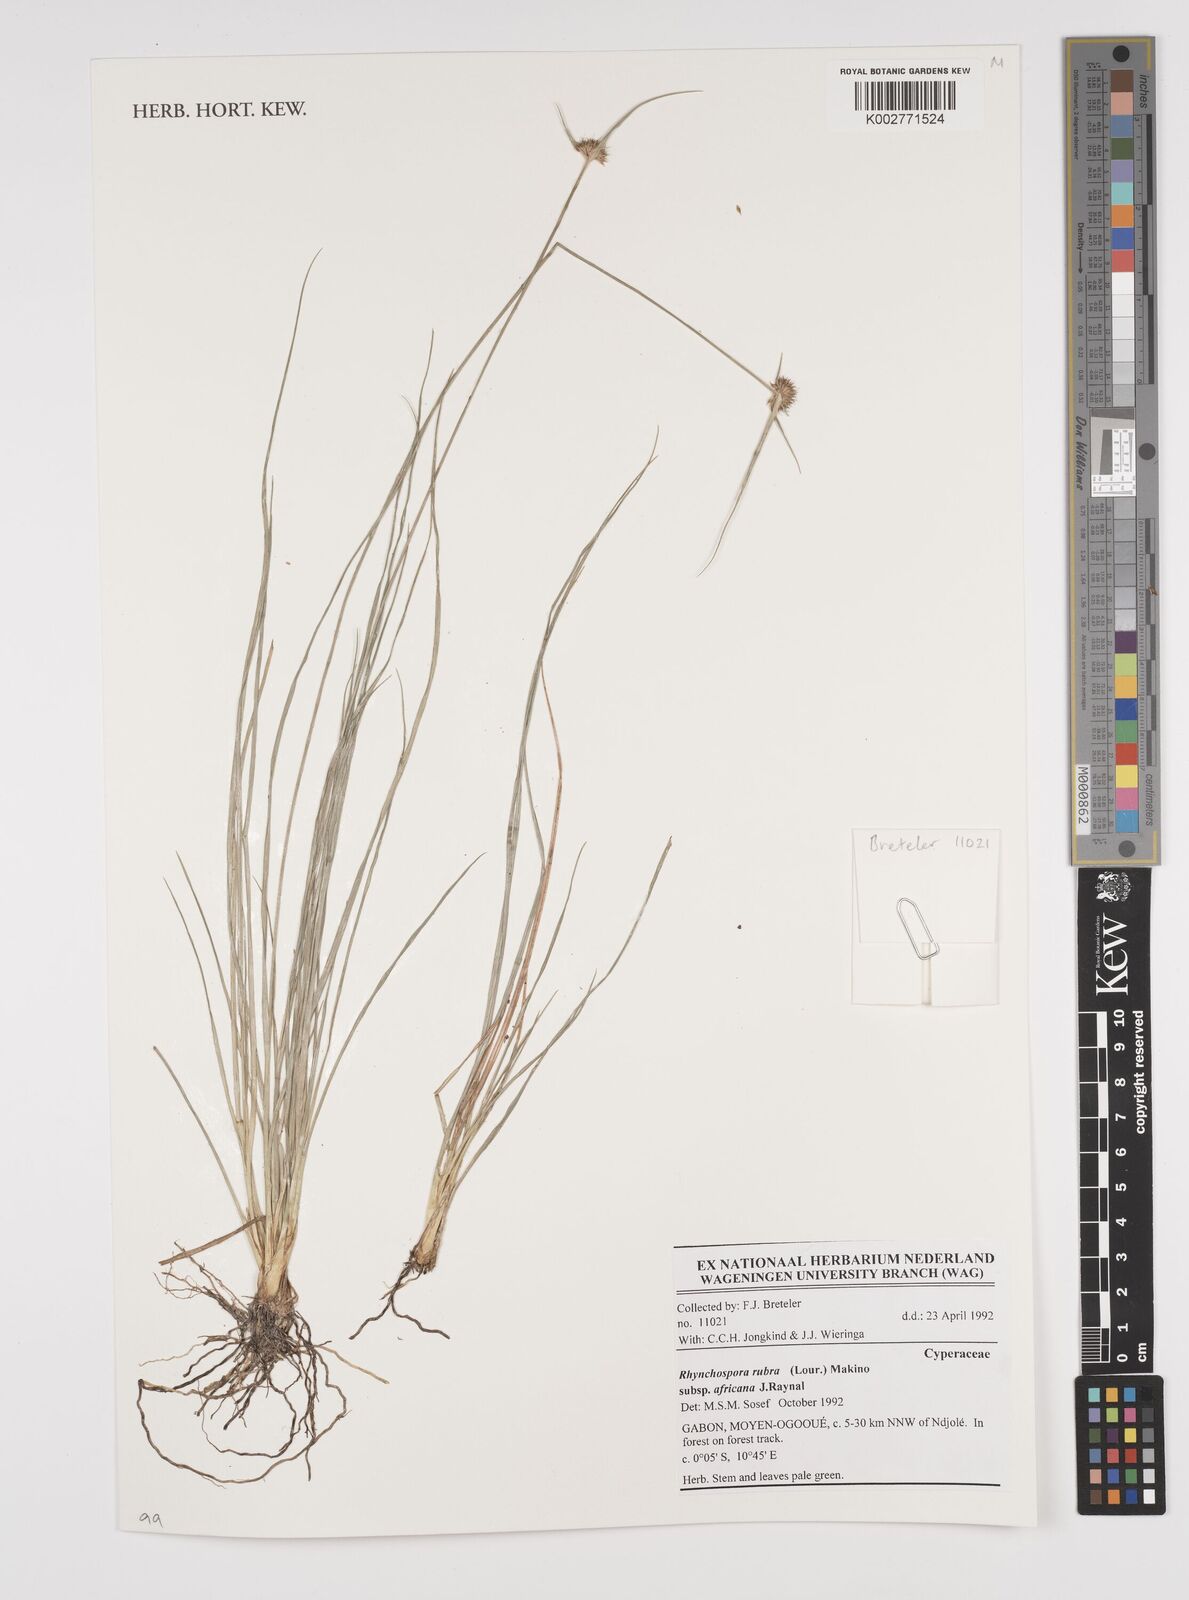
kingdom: Plantae
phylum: Tracheophyta
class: Liliopsida
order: Poales
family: Cyperaceae
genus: Rhynchospora
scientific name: Rhynchospora rubra
